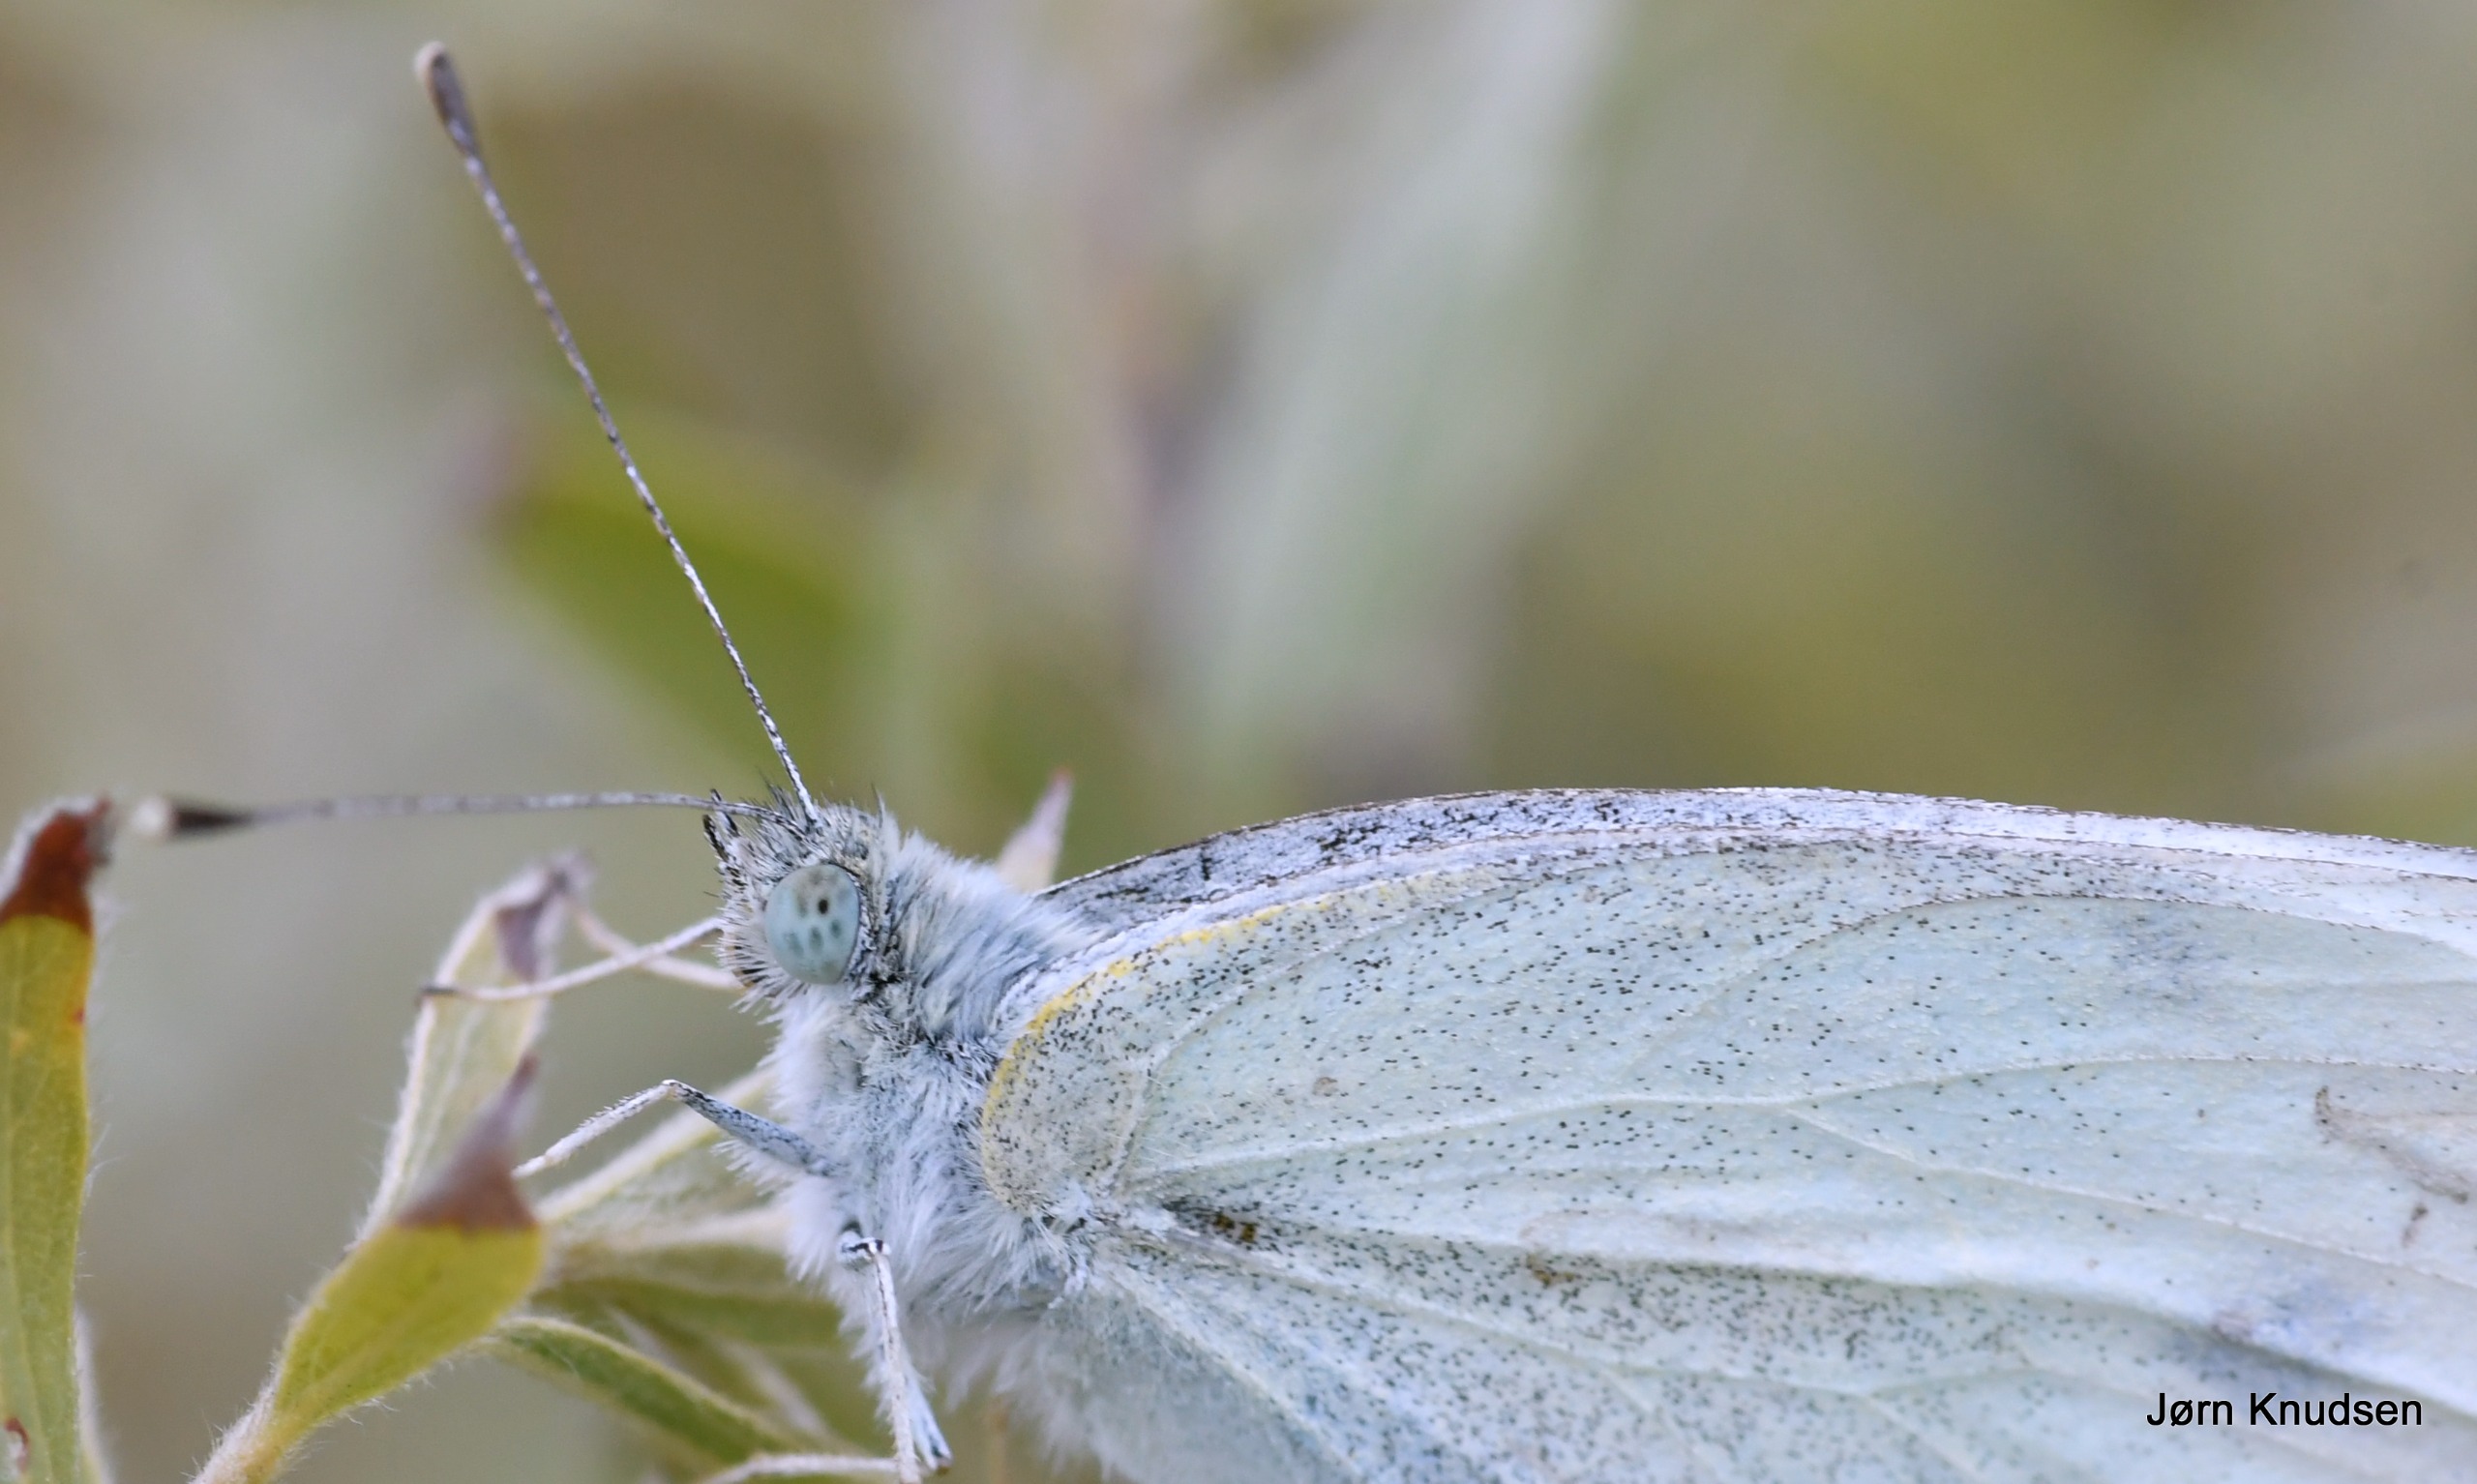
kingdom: Animalia
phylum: Arthropoda
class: Insecta
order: Lepidoptera
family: Pieridae
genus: Pieris
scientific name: Pieris rapae
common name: Lille kålsommerfugl
